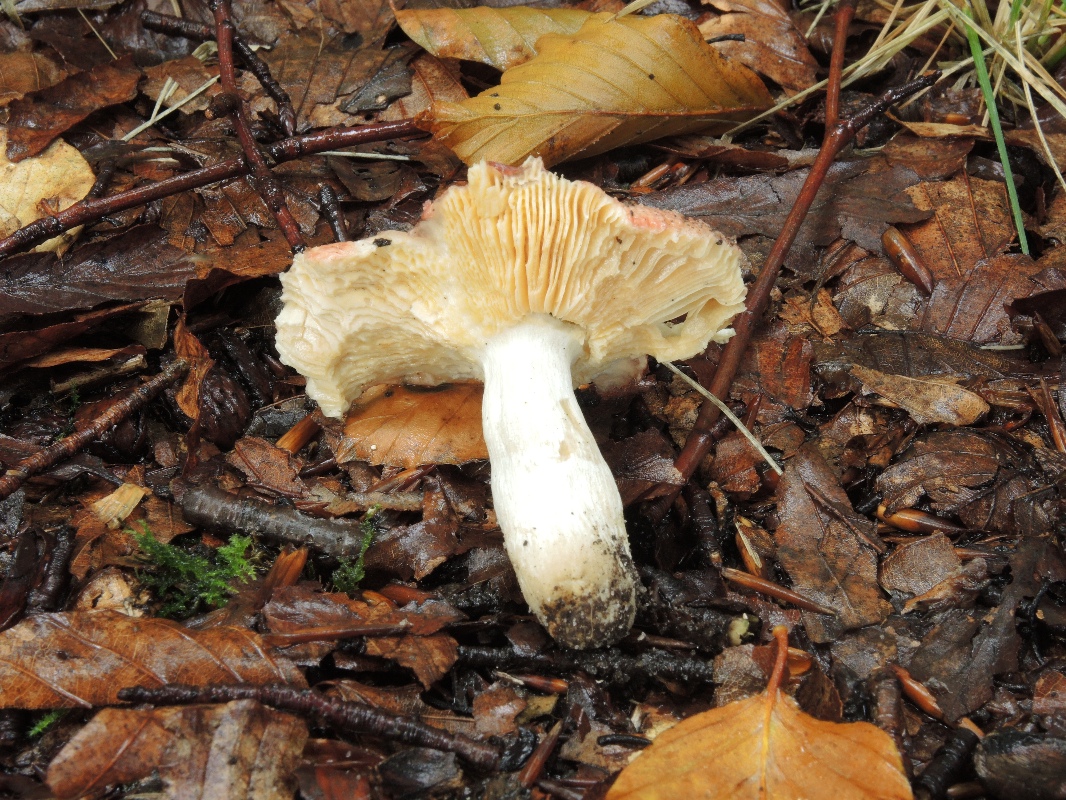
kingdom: Fungi
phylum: Basidiomycota
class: Agaricomycetes
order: Russulales
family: Russulaceae
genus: Russula
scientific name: Russula veternosa
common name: blødkødet skørhat
